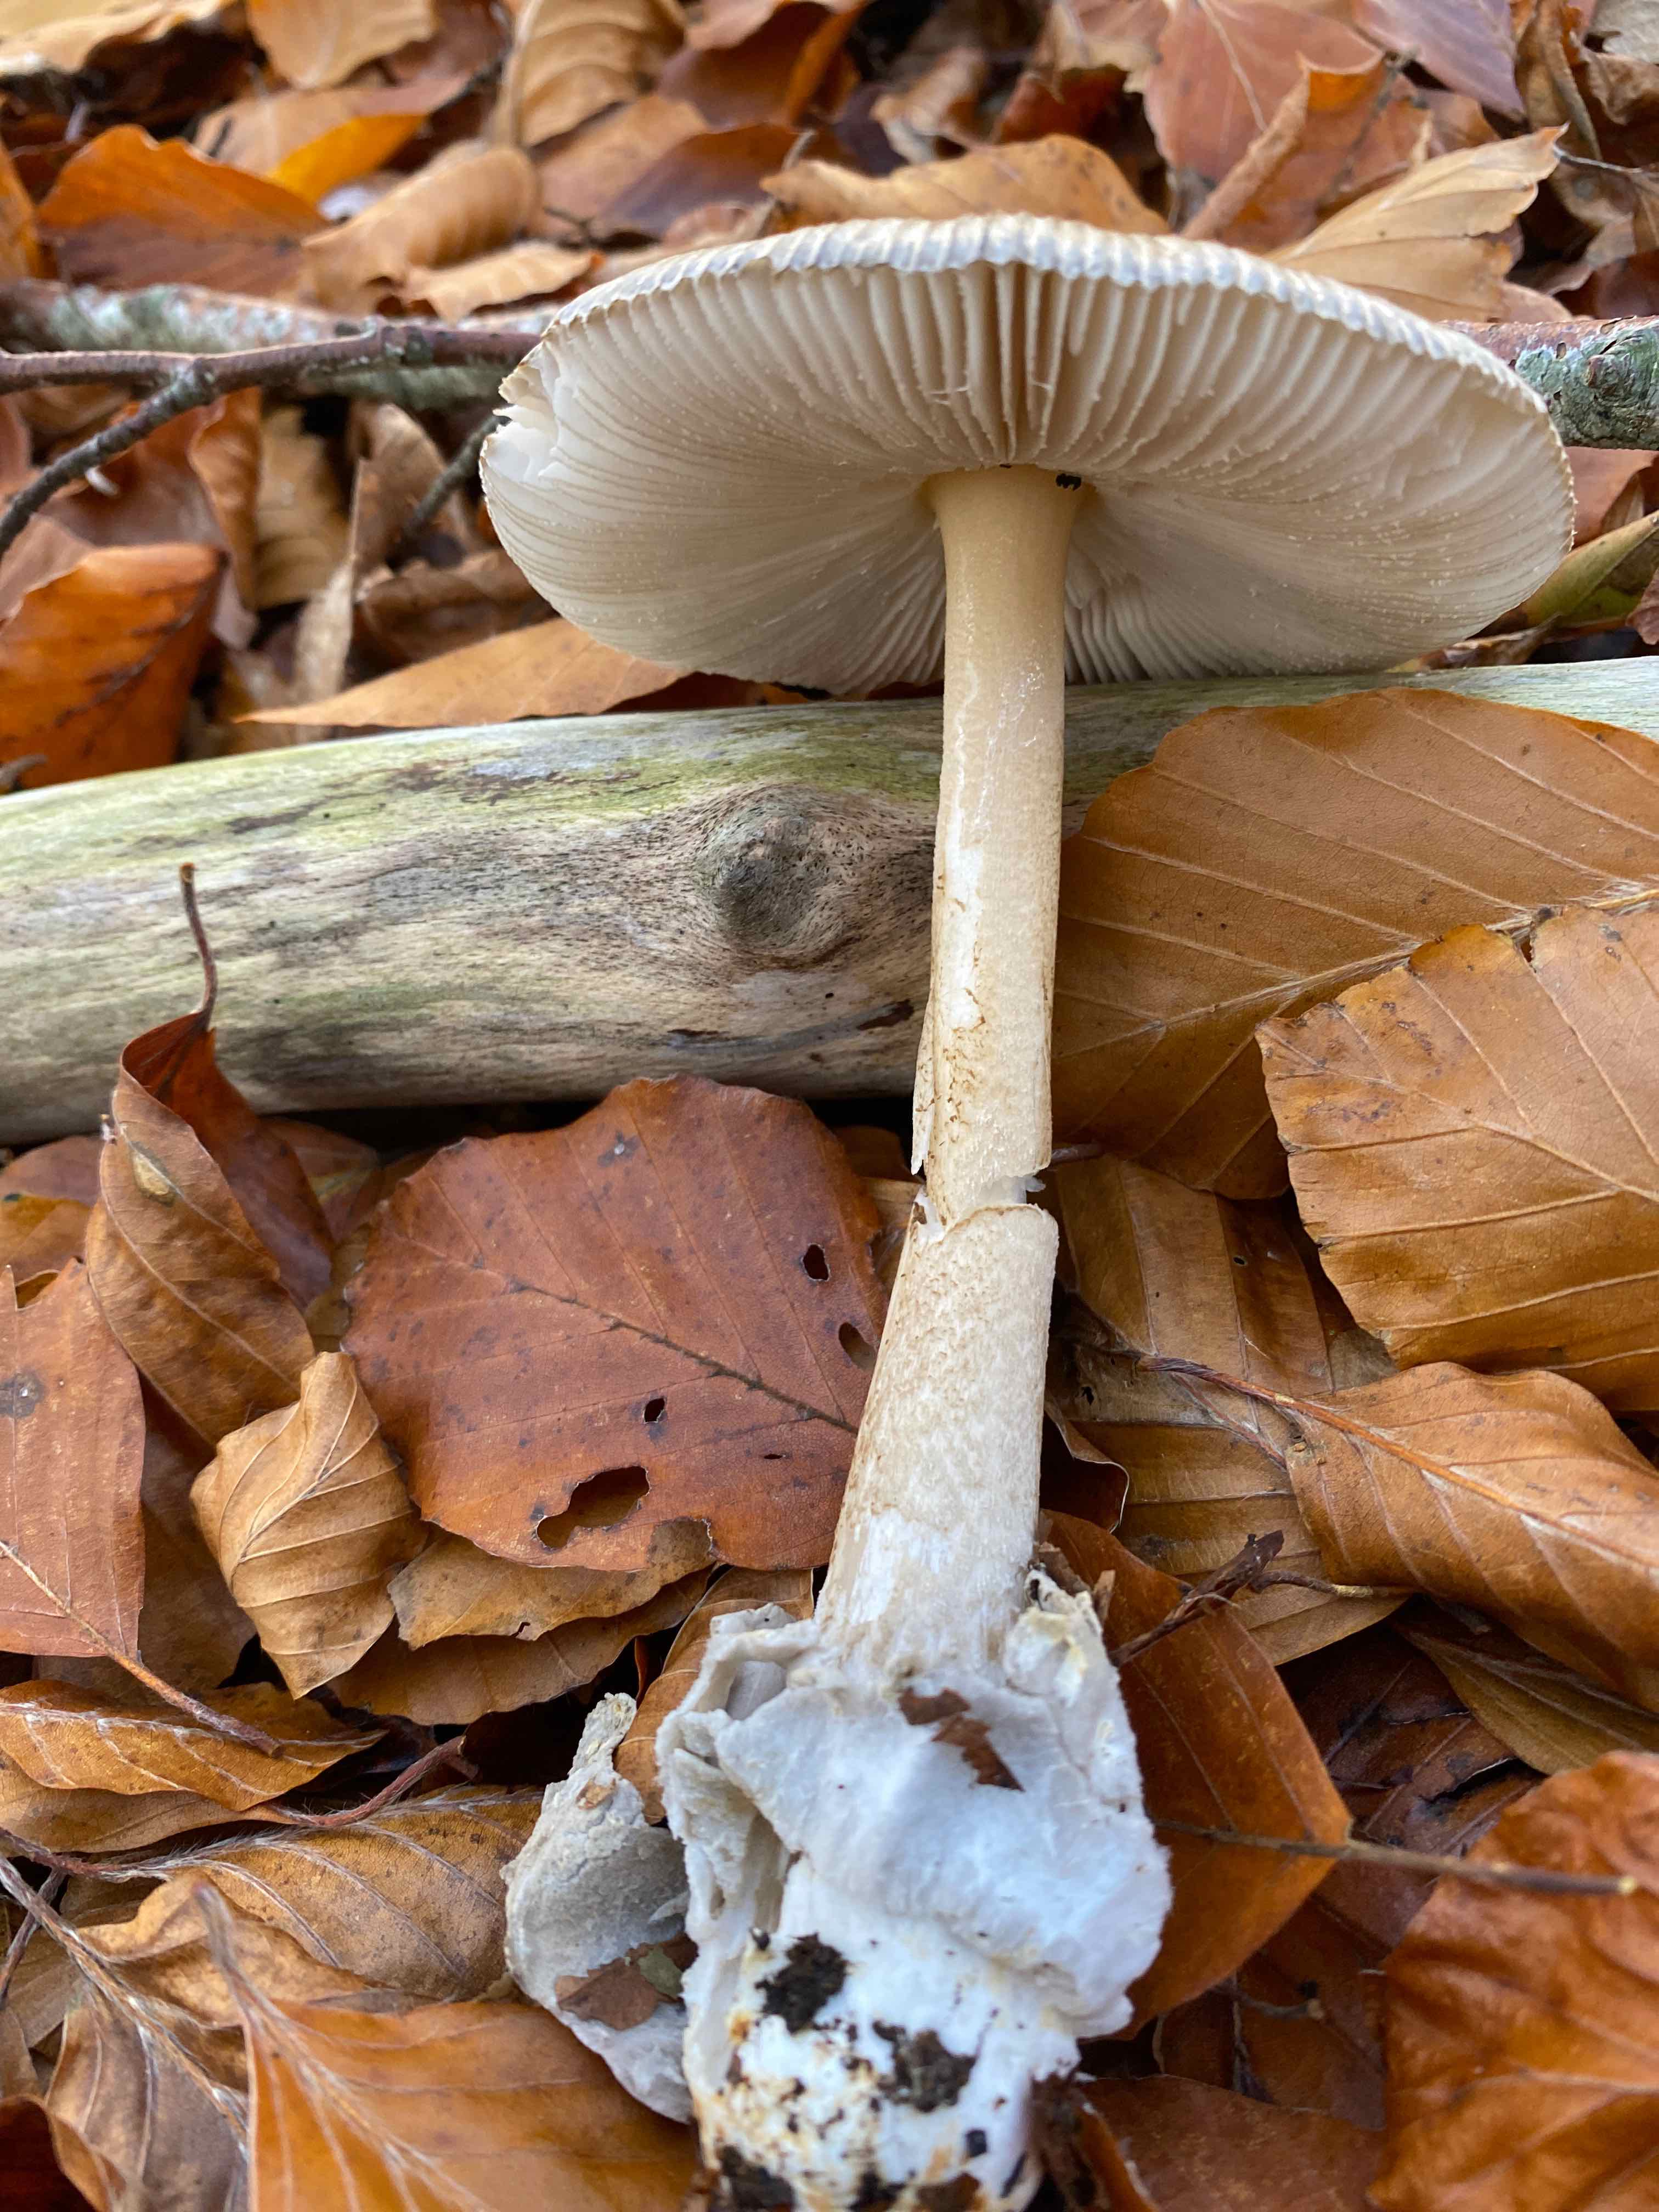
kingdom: Fungi
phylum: Basidiomycota
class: Agaricomycetes
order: Agaricales
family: Amanitaceae
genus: Amanita
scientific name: Amanita fulva
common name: brun kam-fluesvamp
